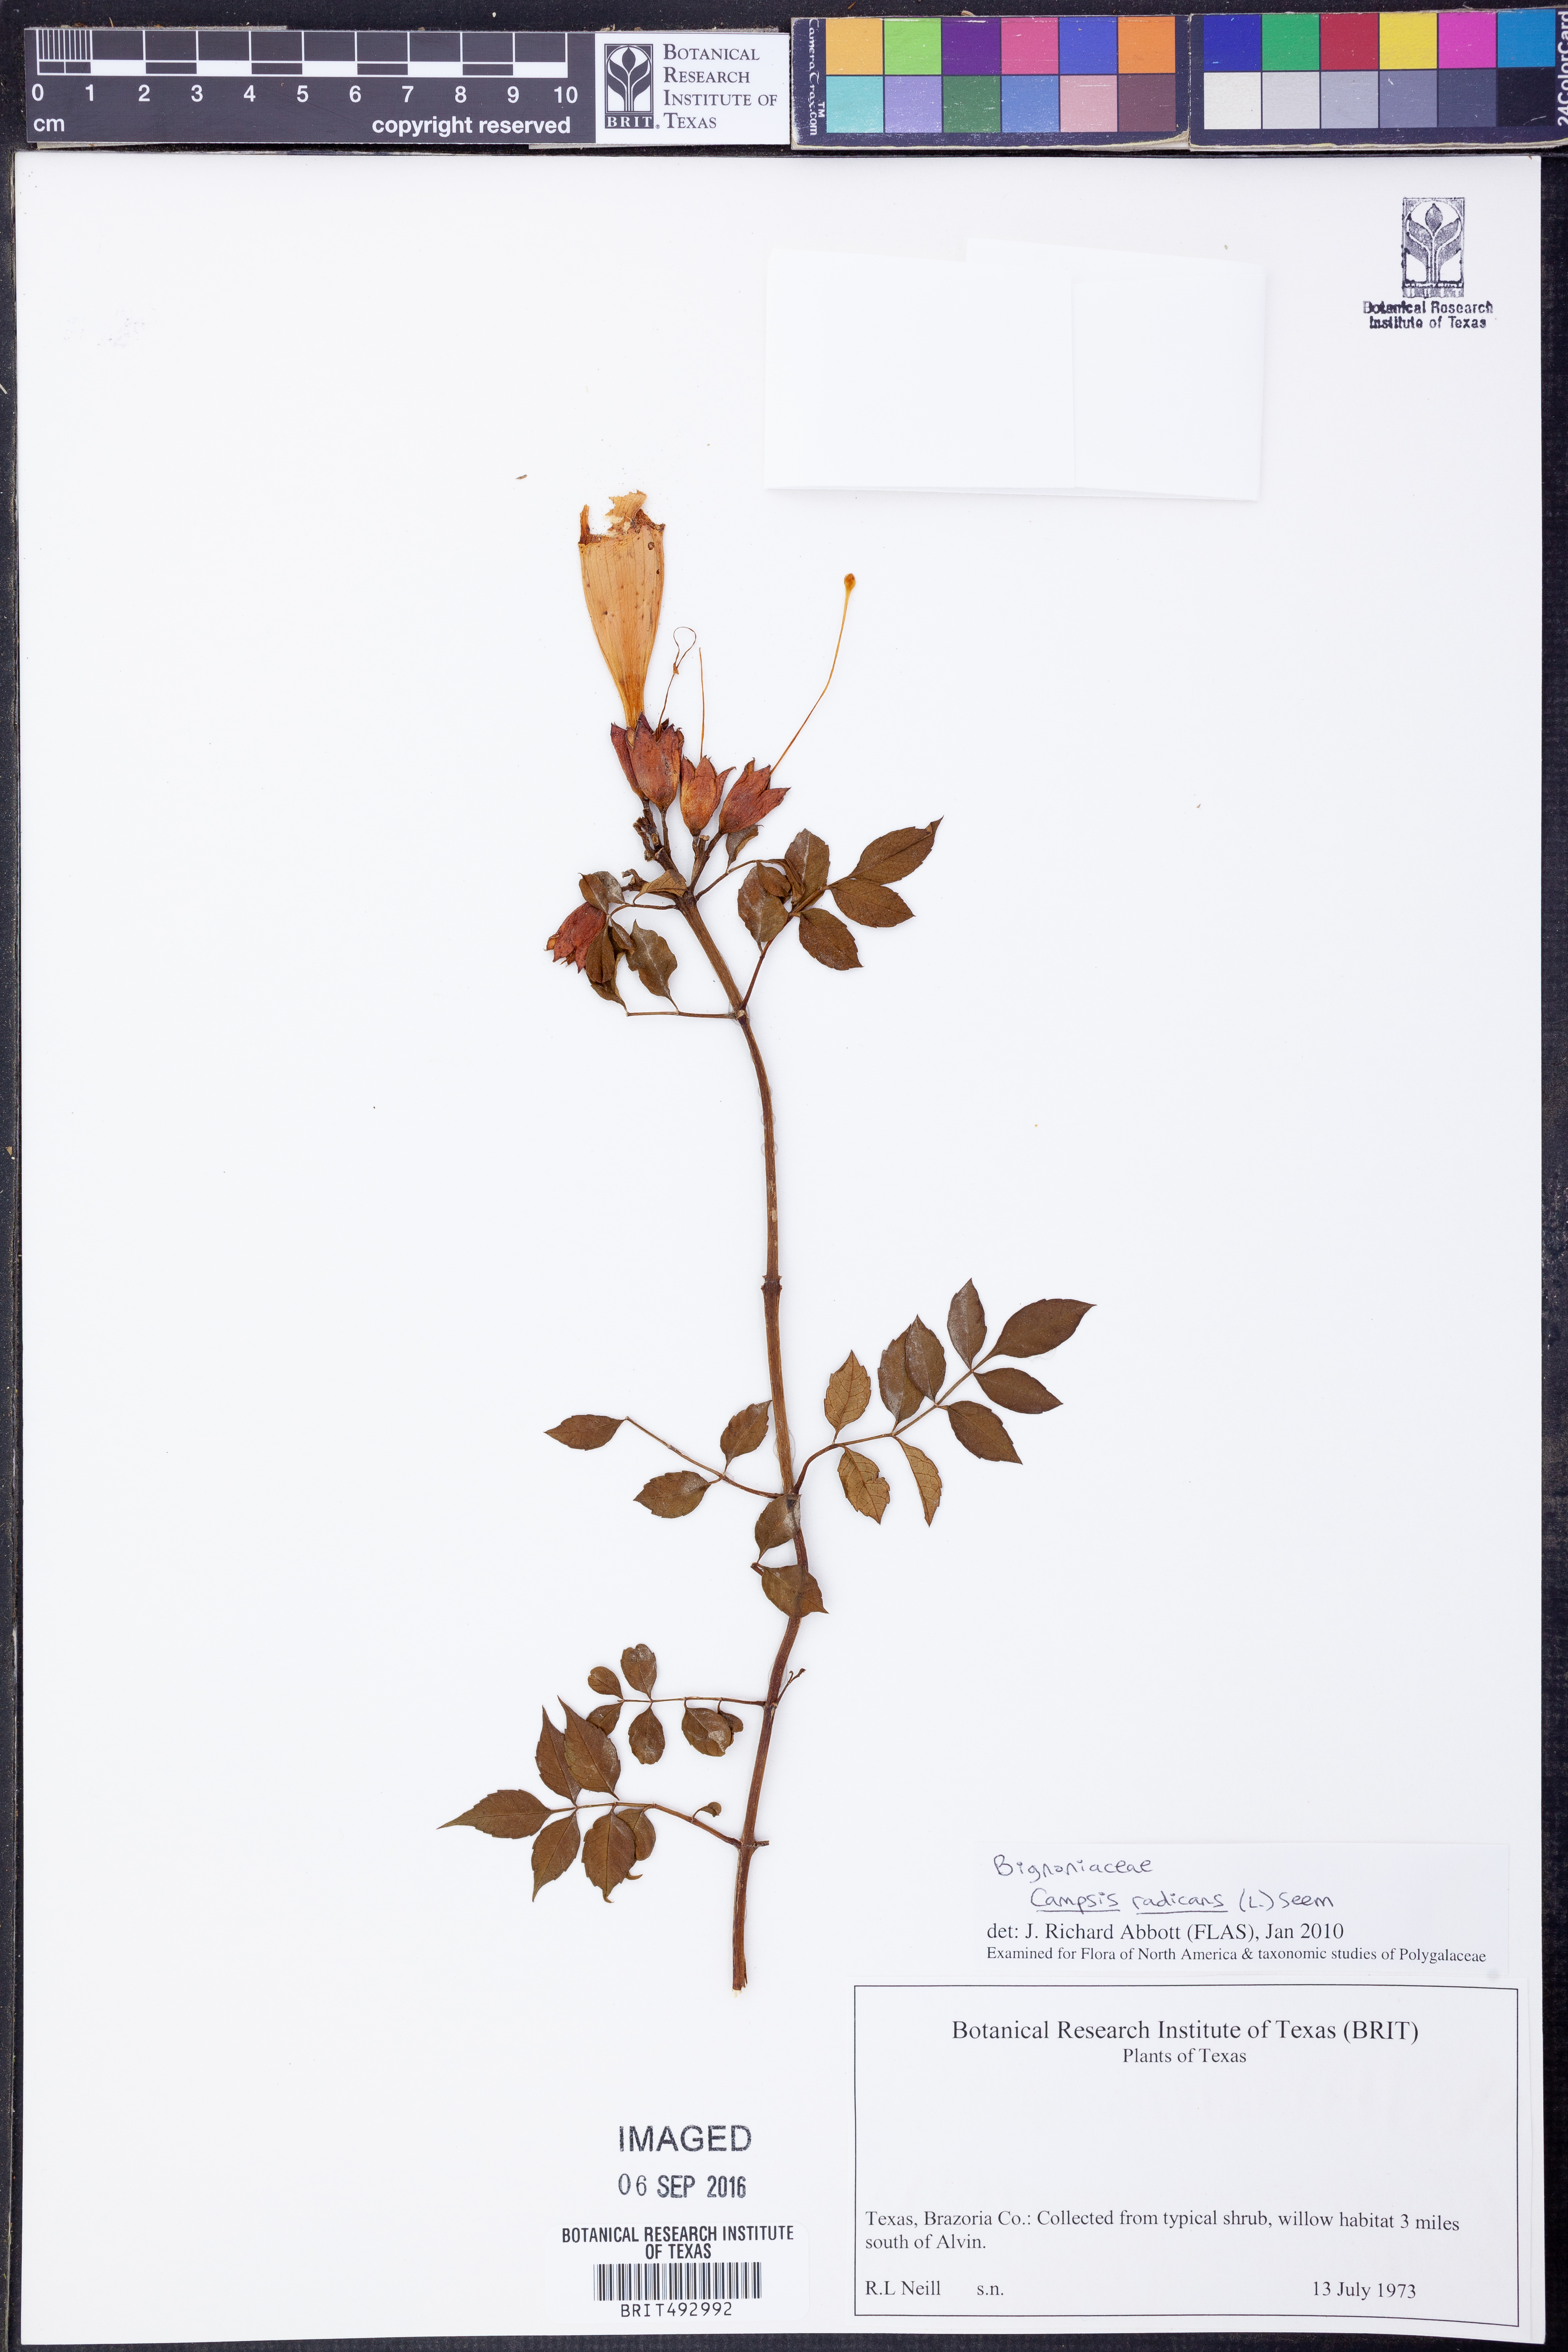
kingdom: Plantae
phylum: Tracheophyta
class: Magnoliopsida
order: Lamiales
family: Bignoniaceae
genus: Campsis
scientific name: Campsis radicans
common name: Trumpet-creeper
